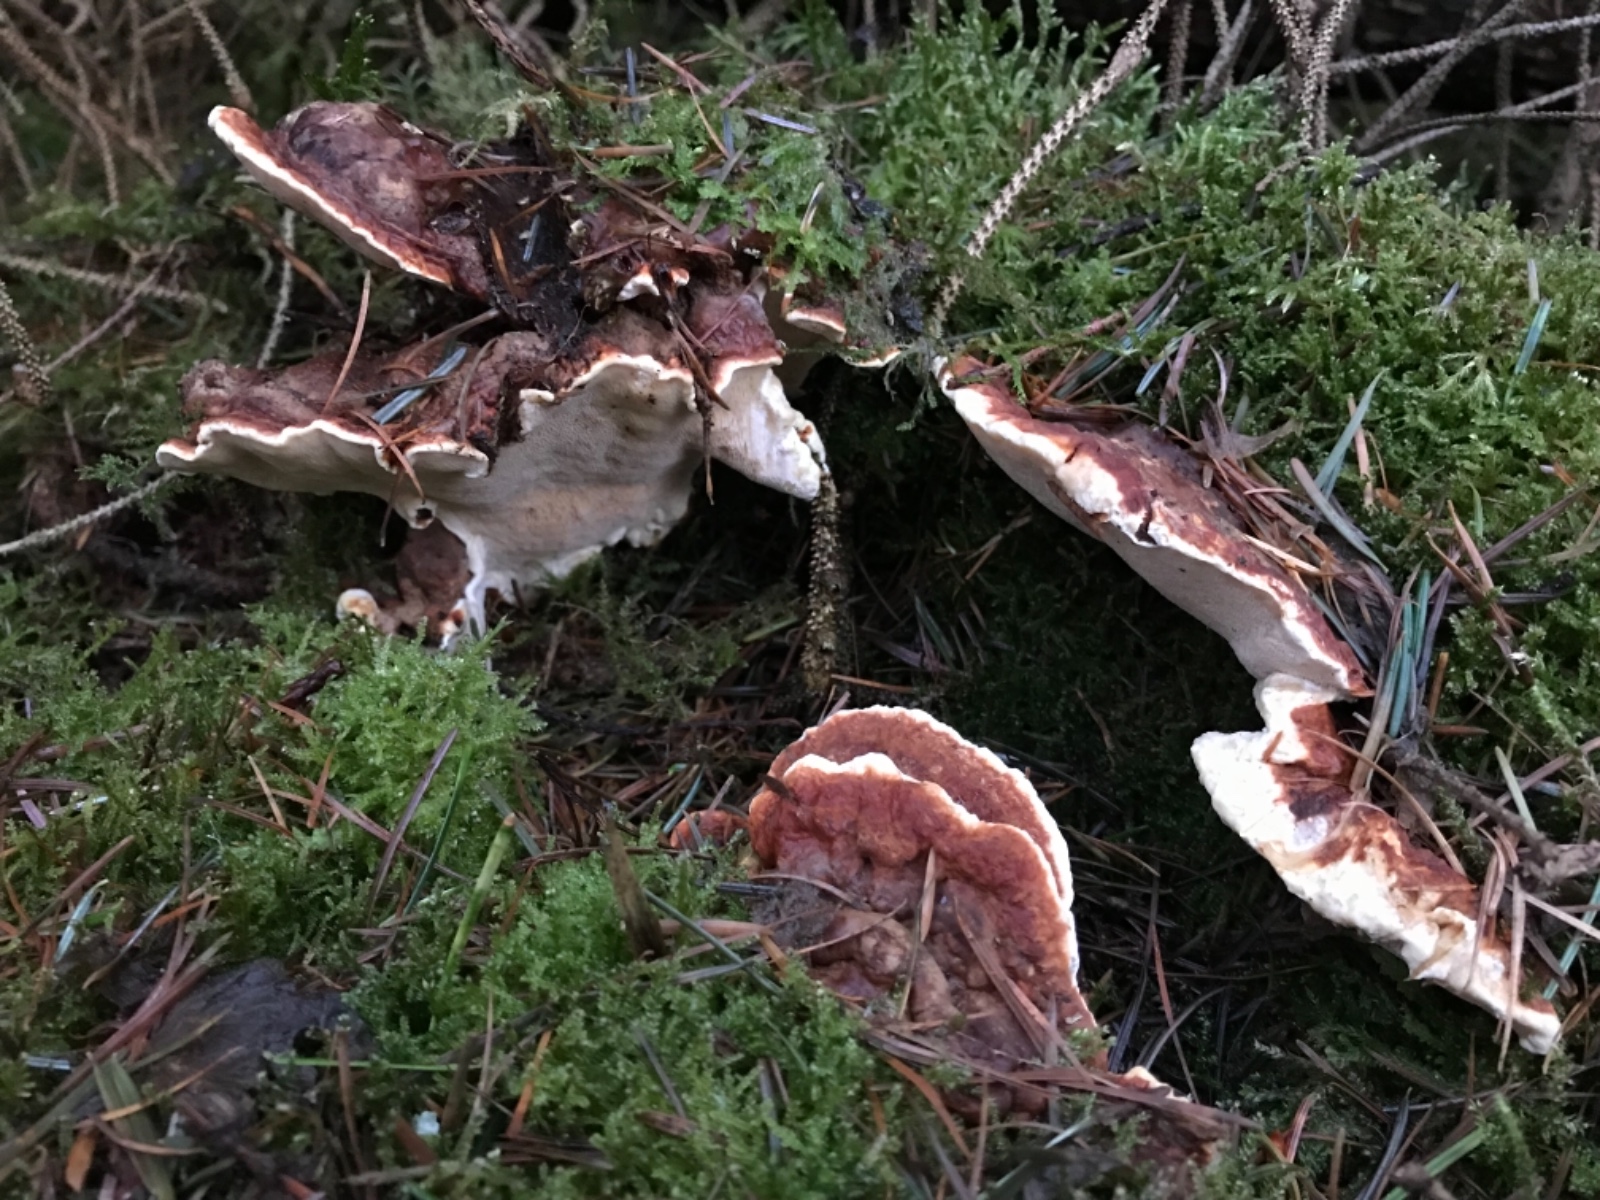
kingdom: Fungi
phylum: Basidiomycota
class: Agaricomycetes
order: Russulales
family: Bondarzewiaceae
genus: Heterobasidion
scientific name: Heterobasidion annosum
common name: almindelig rodfordærver
